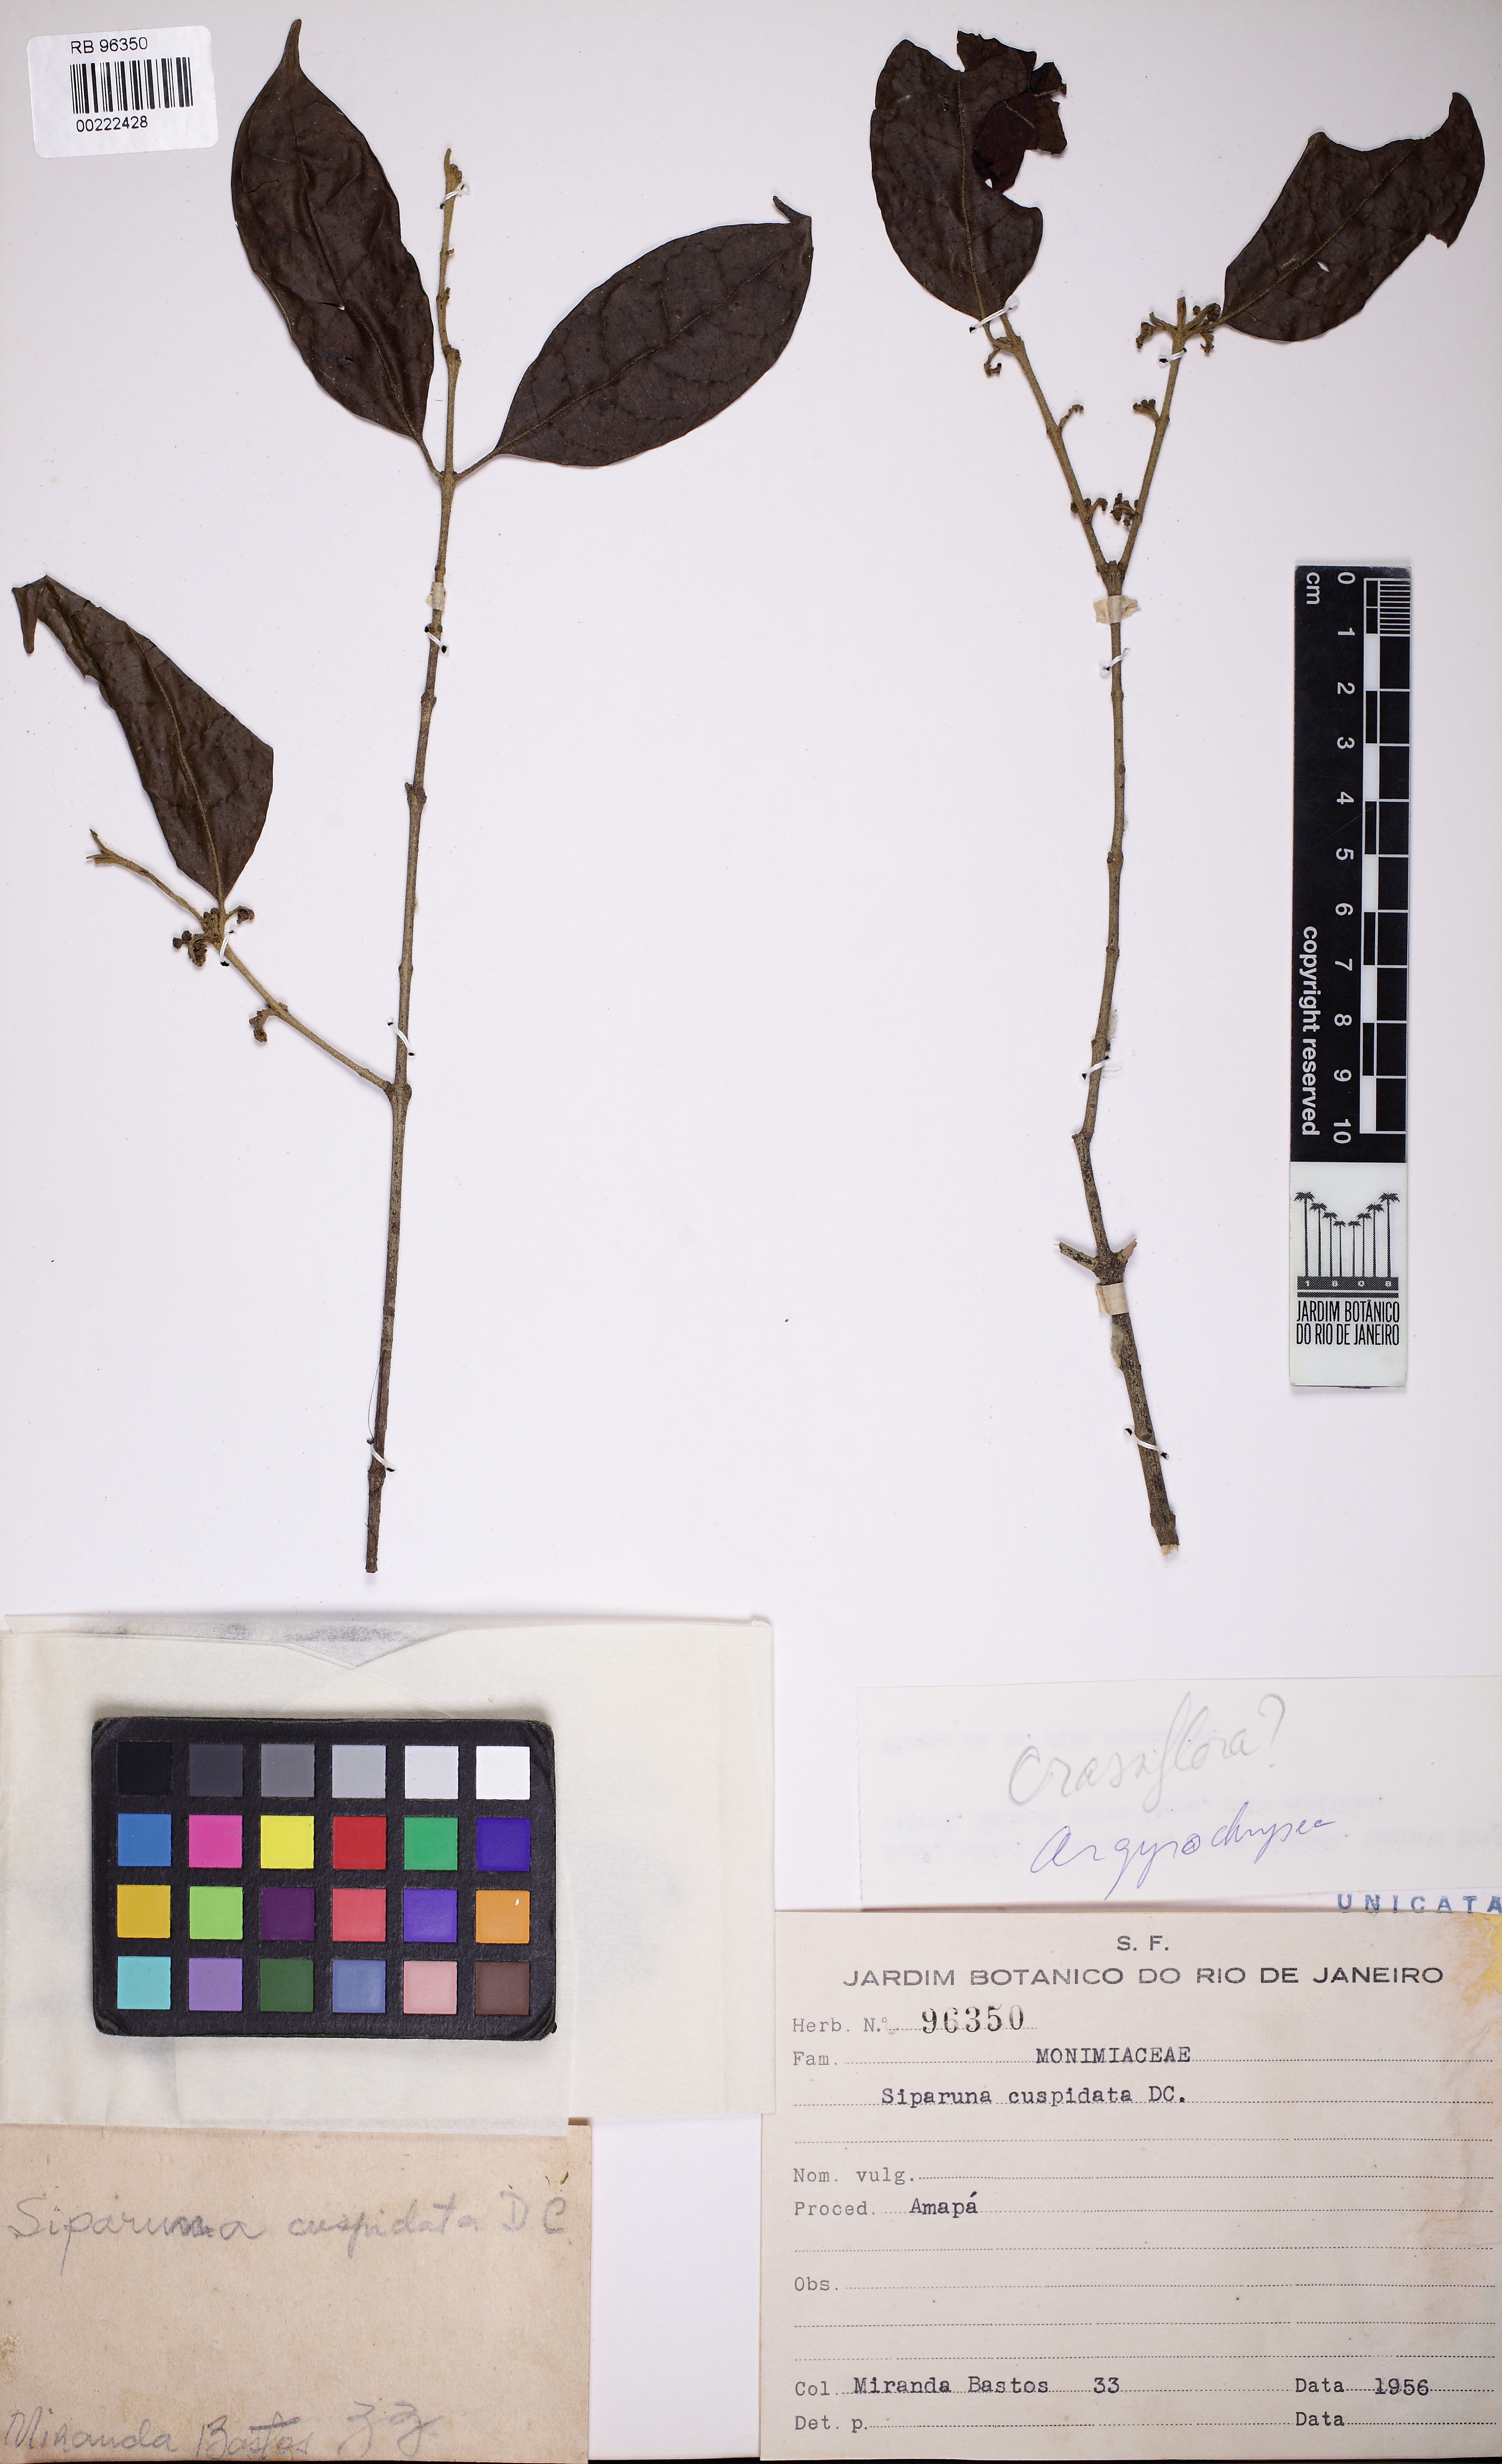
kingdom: Plantae
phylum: Tracheophyta
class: Magnoliopsida
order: Laurales
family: Siparunaceae
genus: Siparuna
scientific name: Siparuna cuspidata
